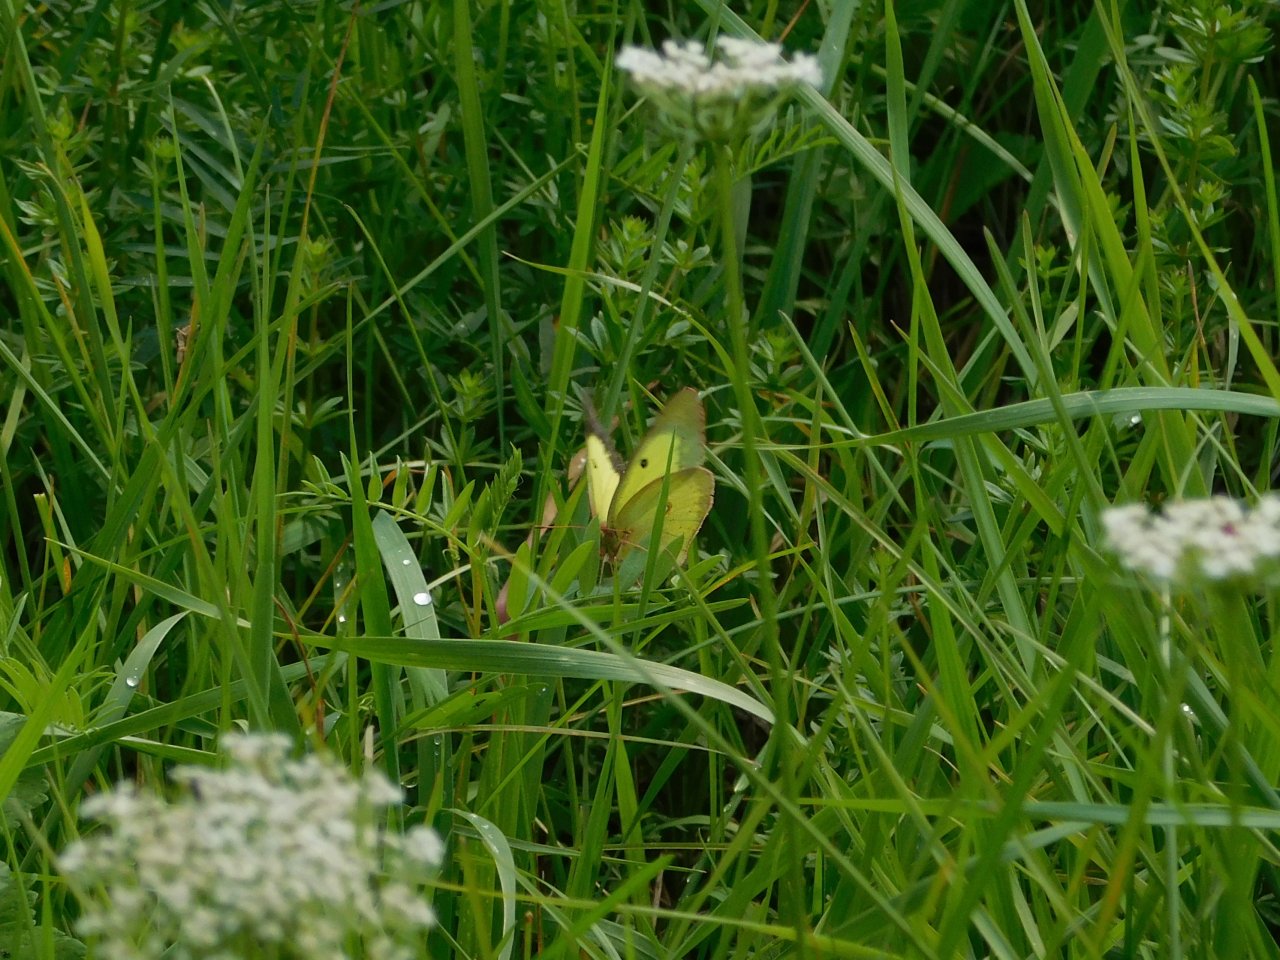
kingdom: Animalia
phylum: Arthropoda
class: Insecta
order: Lepidoptera
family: Pieridae
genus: Colias
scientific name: Colias philodice
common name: Clouded Sulphur
